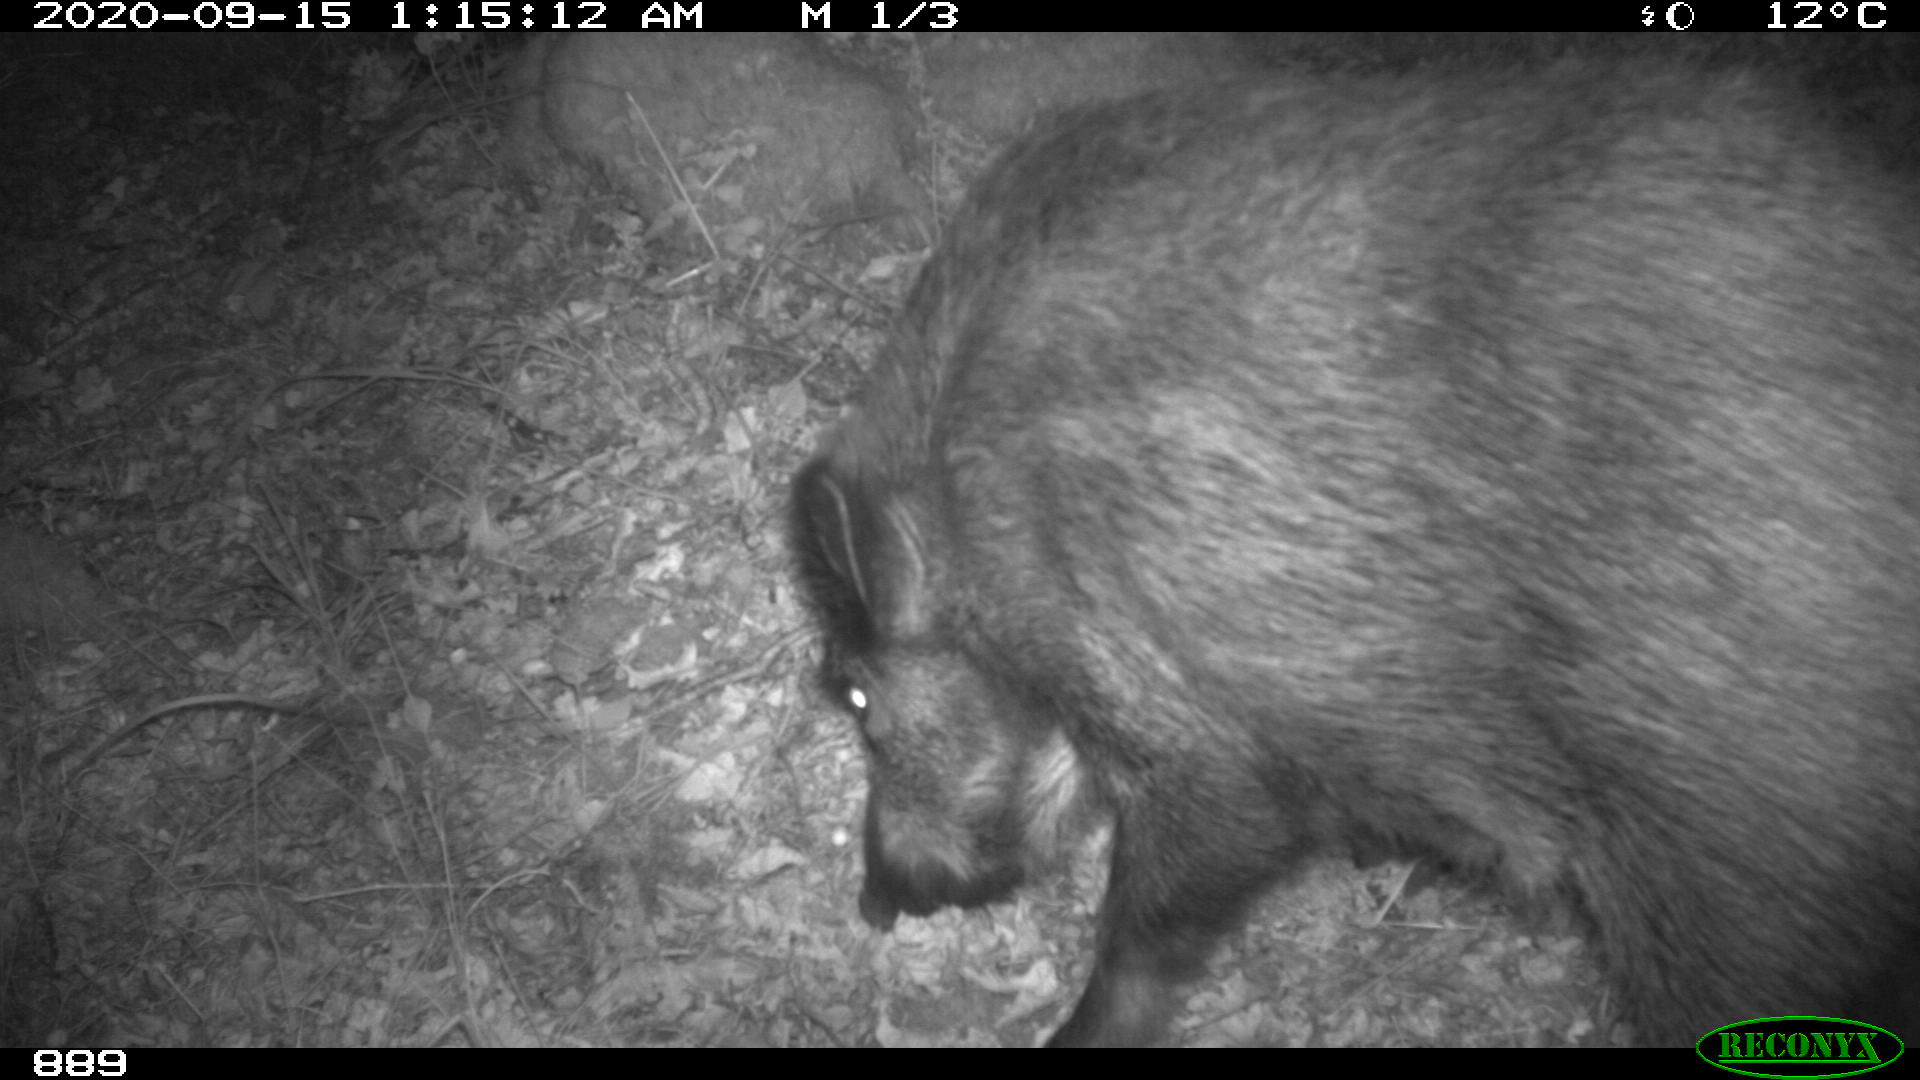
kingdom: Animalia
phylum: Chordata
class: Mammalia
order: Artiodactyla
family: Suidae
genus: Sus
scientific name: Sus scrofa
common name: Wild boar
